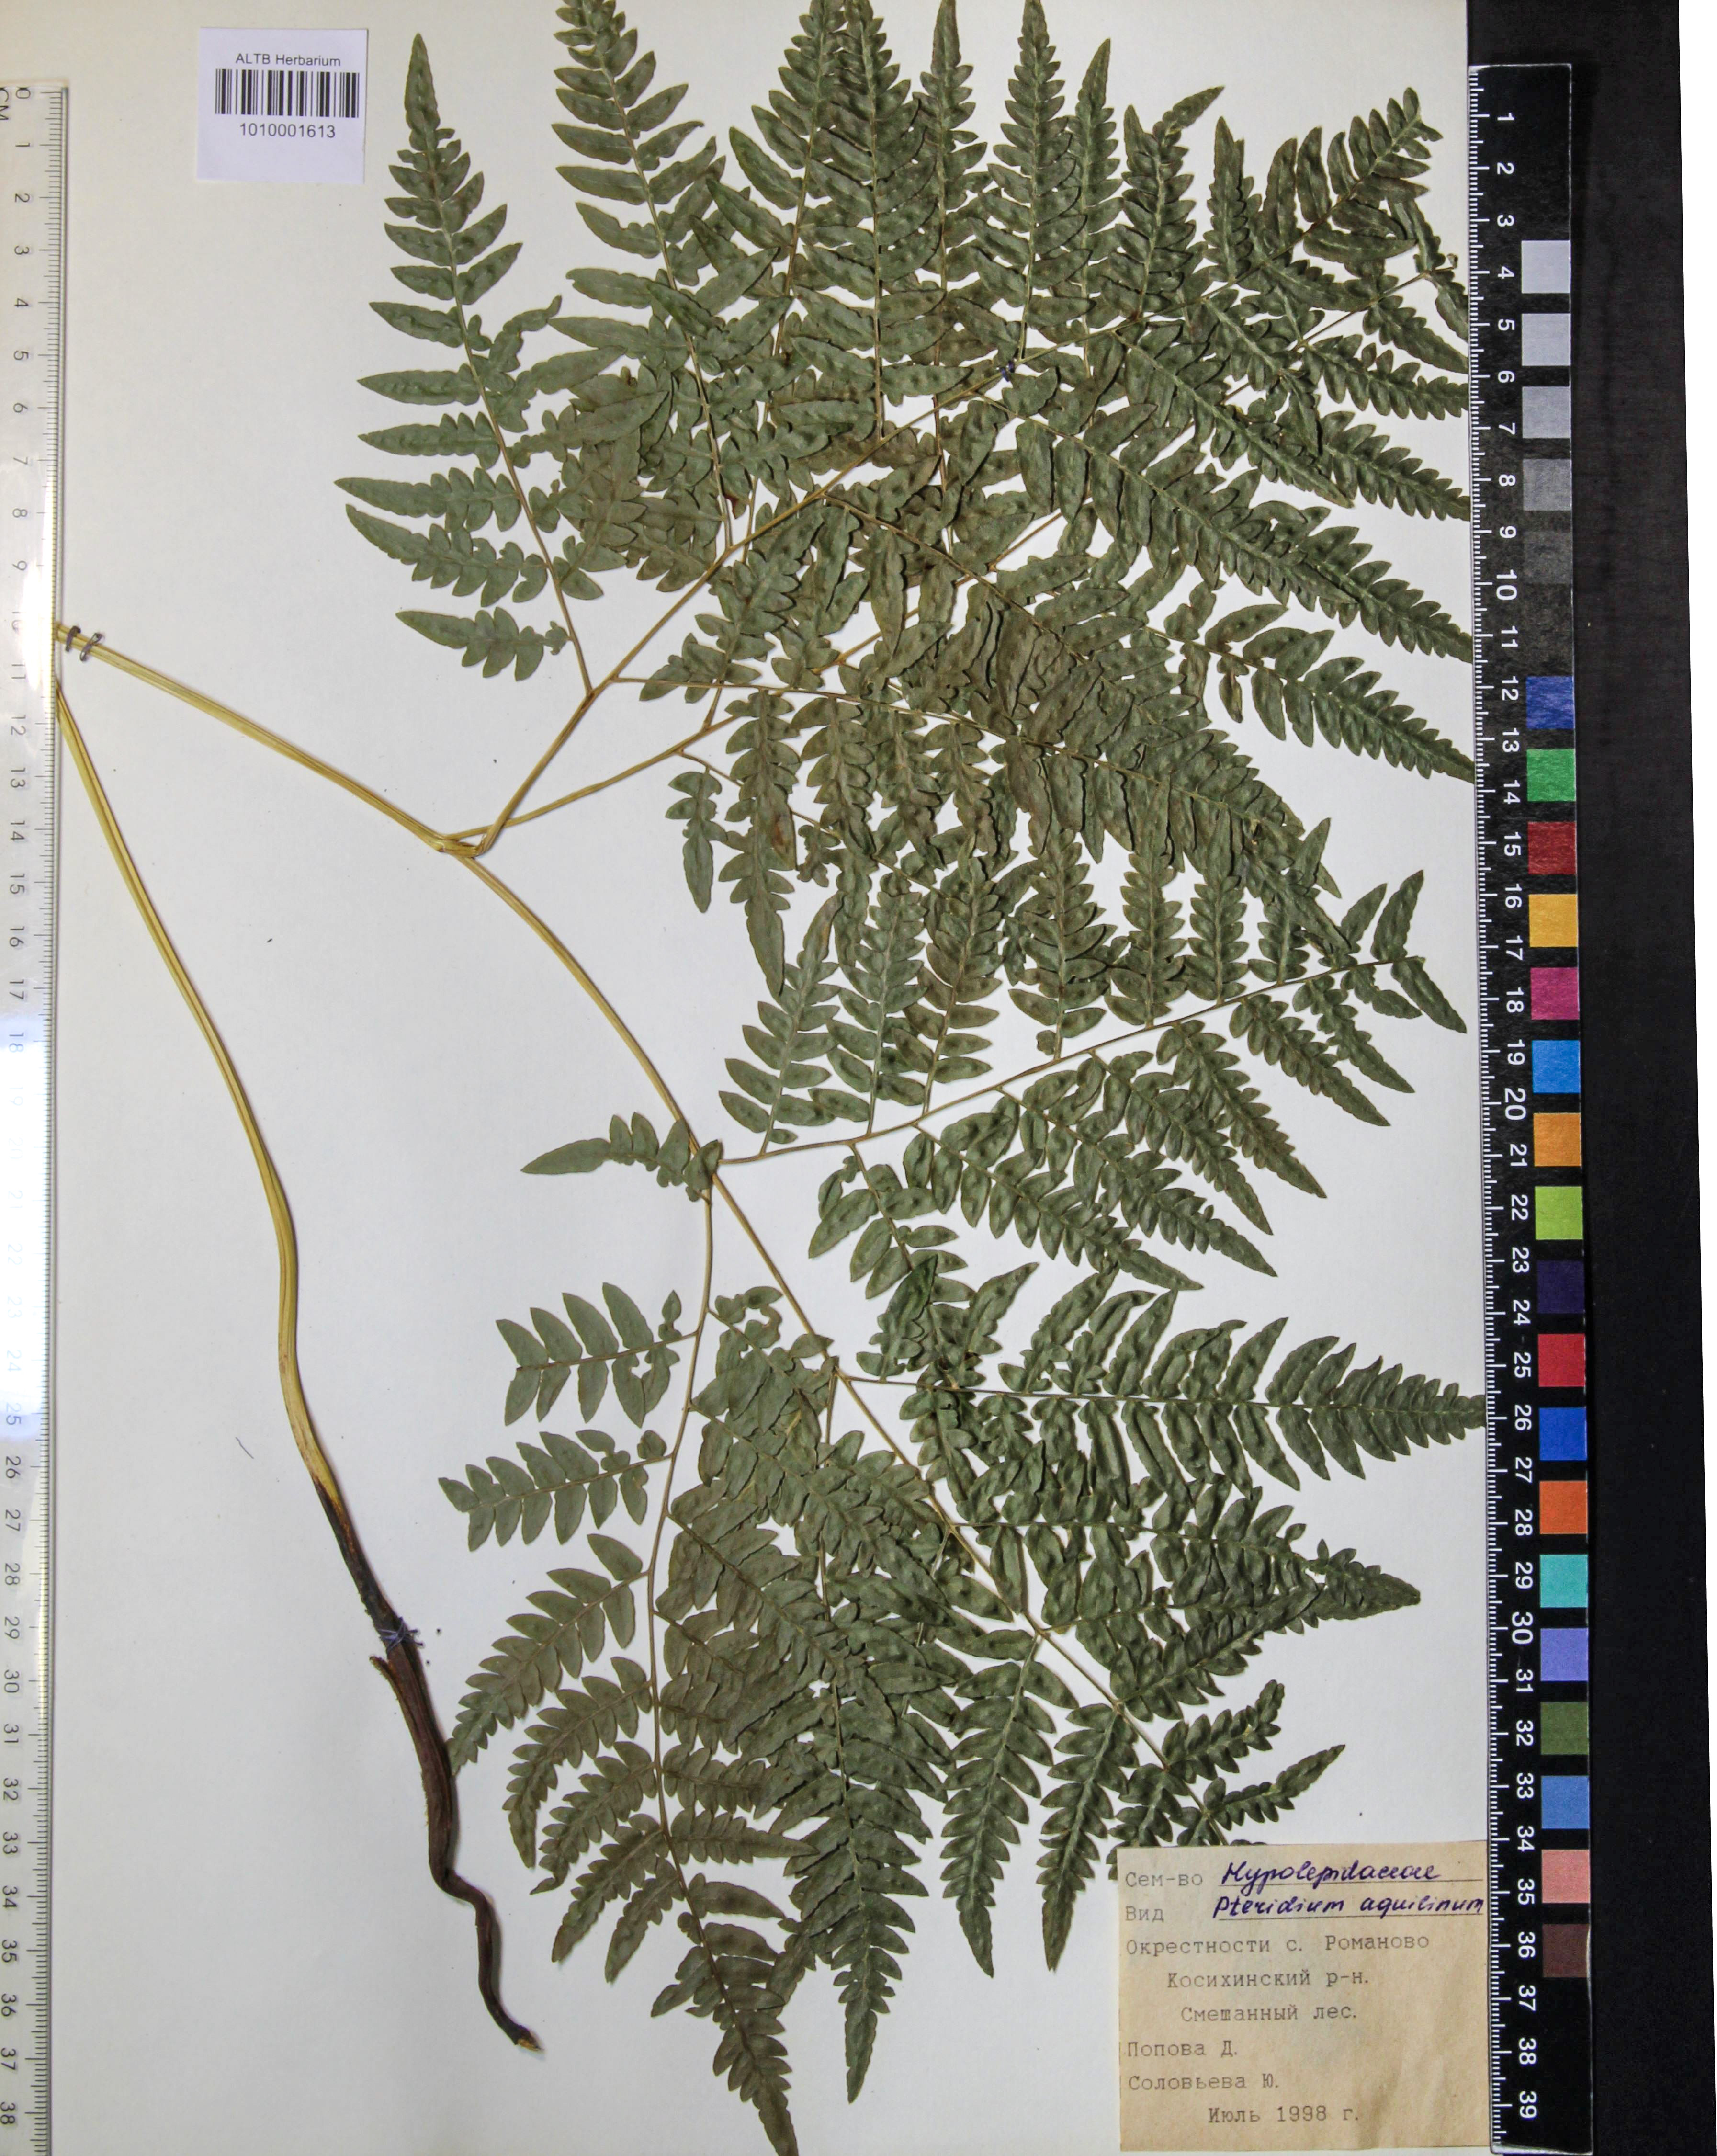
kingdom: Plantae
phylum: Tracheophyta
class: Polypodiopsida
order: Polypodiales
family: Dennstaedtiaceae
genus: Pteridium
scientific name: Pteridium aquilinum
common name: Bracken
